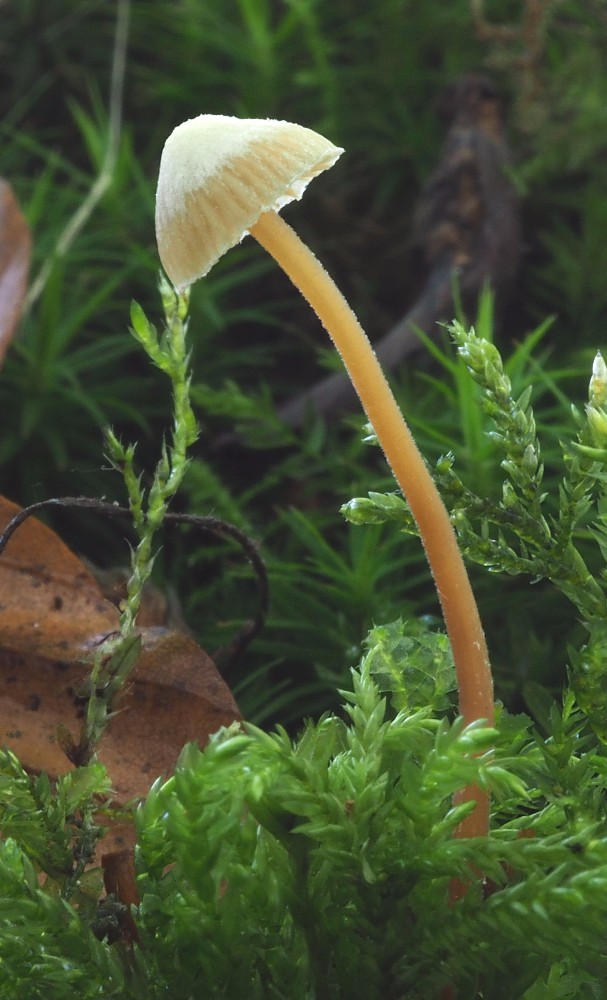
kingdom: Fungi
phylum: Basidiomycota
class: Agaricomycetes
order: Agaricales
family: Hymenogastraceae
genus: Galerina
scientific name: Galerina atkinsoniana
